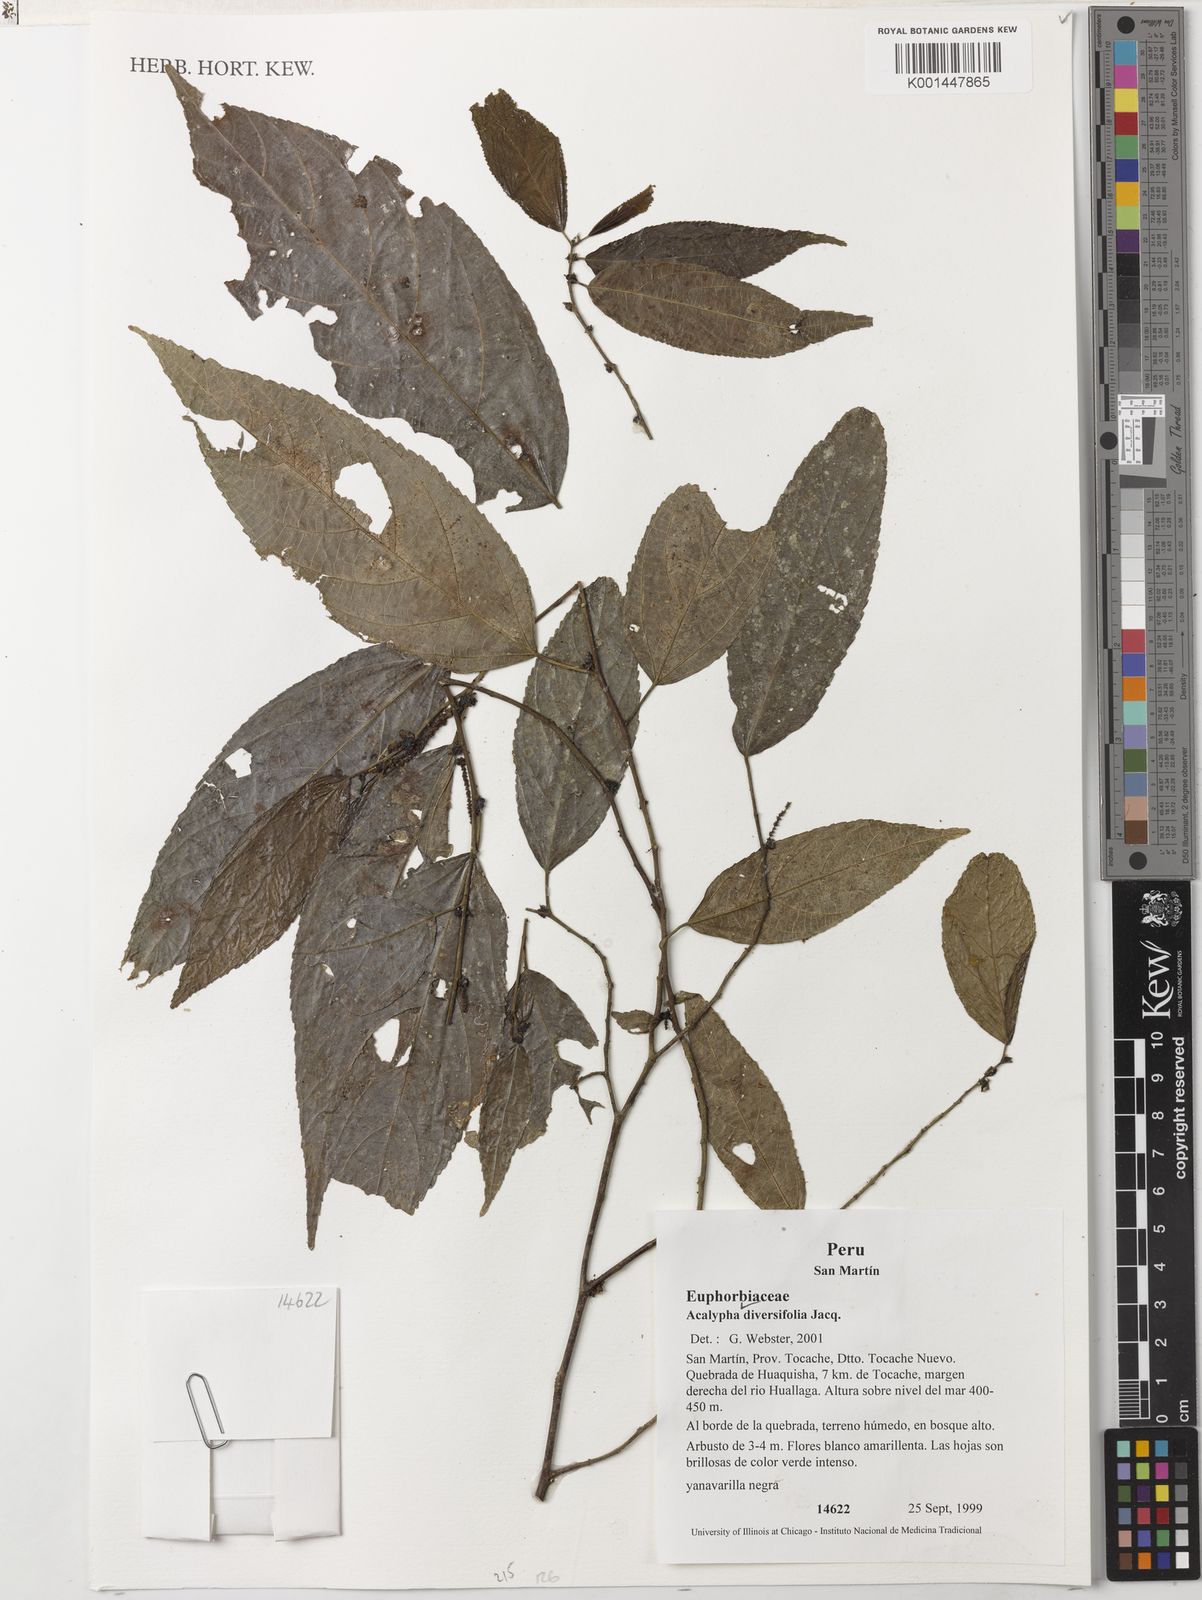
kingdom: Plantae
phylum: Tracheophyta
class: Magnoliopsida
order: Malpighiales
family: Euphorbiaceae
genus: Acalypha
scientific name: Acalypha diversifolia
